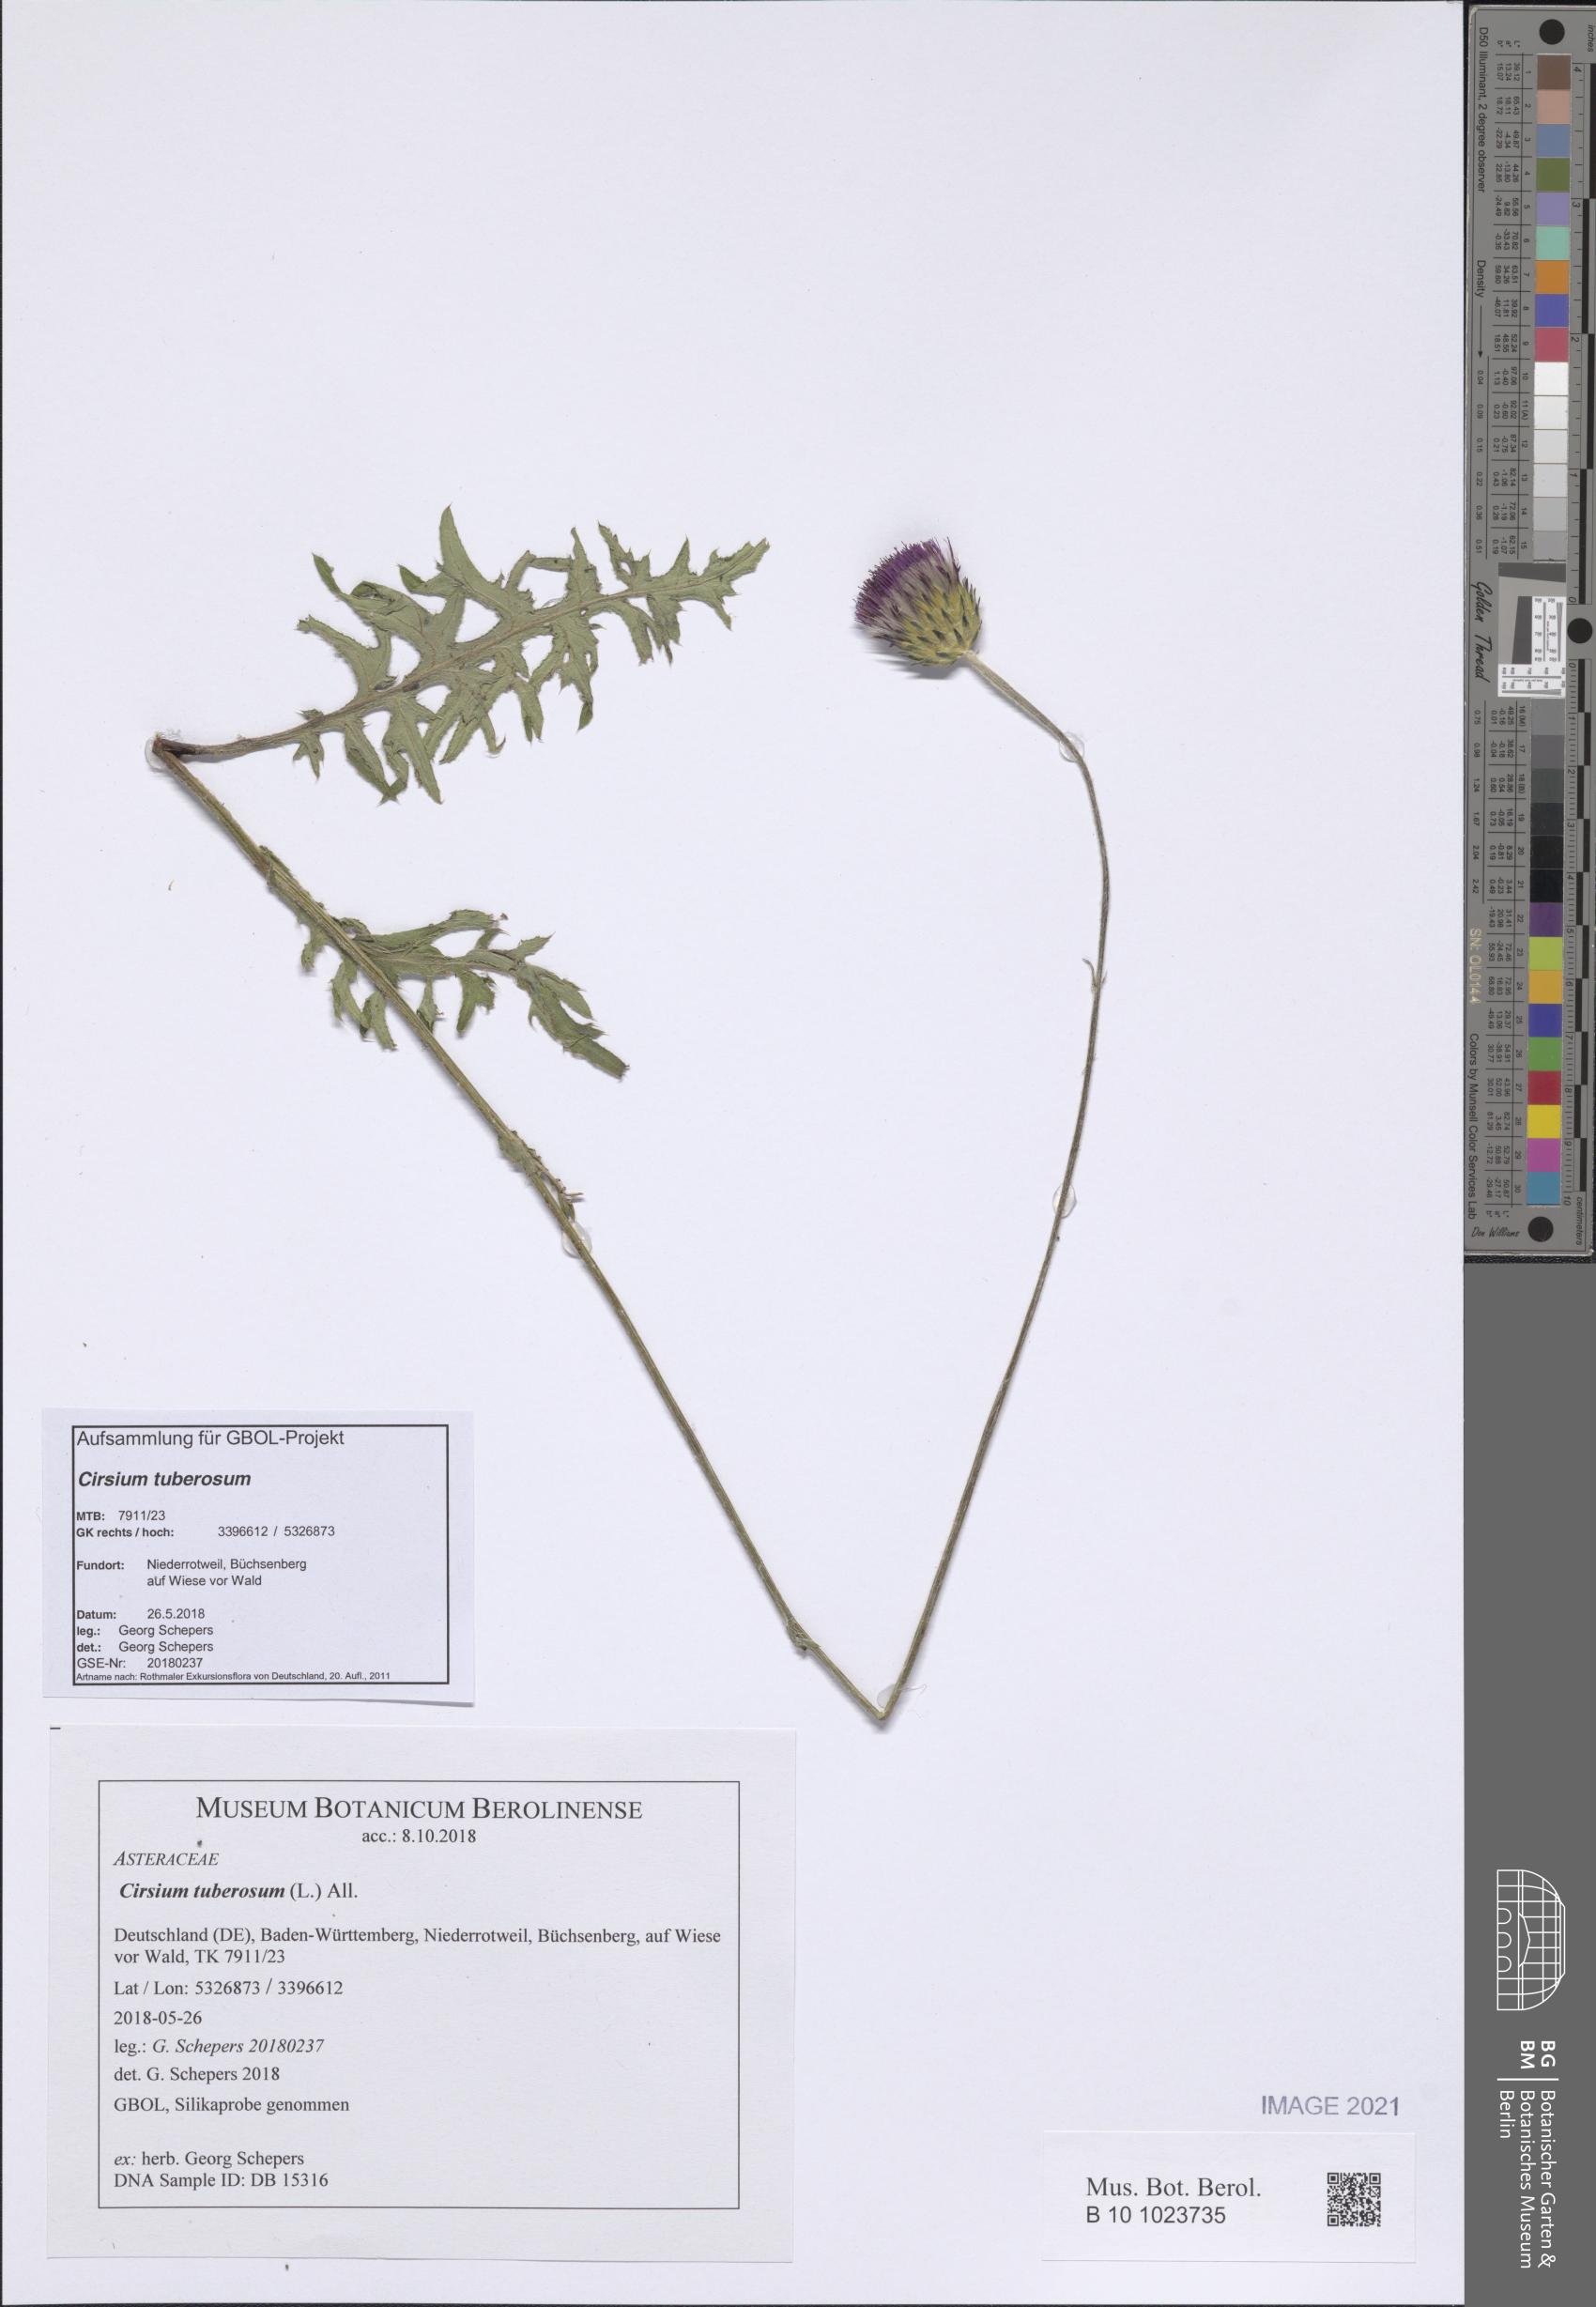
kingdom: Plantae
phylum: Tracheophyta
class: Magnoliopsida
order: Asterales
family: Asteraceae
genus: Cirsium
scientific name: Cirsium tuberosum
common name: Tuberous thistle
